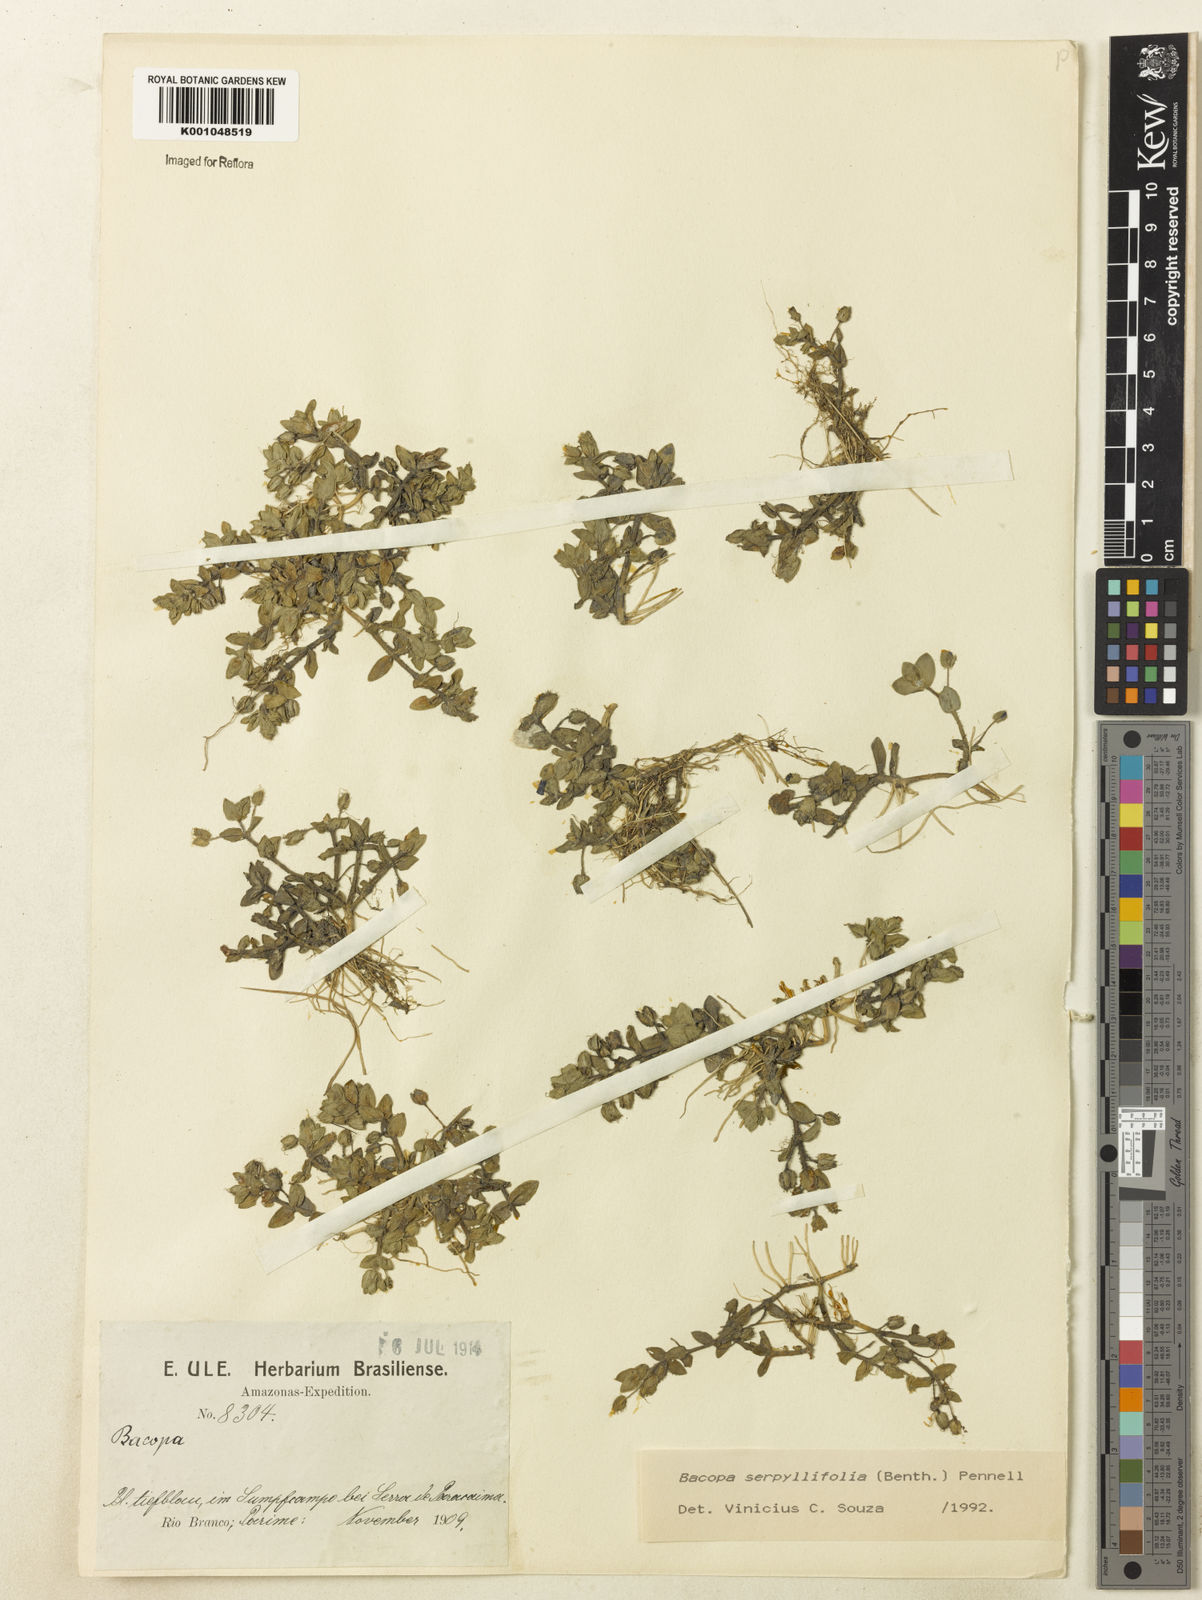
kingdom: Plantae
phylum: Tracheophyta
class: Magnoliopsida
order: Lamiales
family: Plantaginaceae
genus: Bacopa
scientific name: Bacopa serpyllifolia
